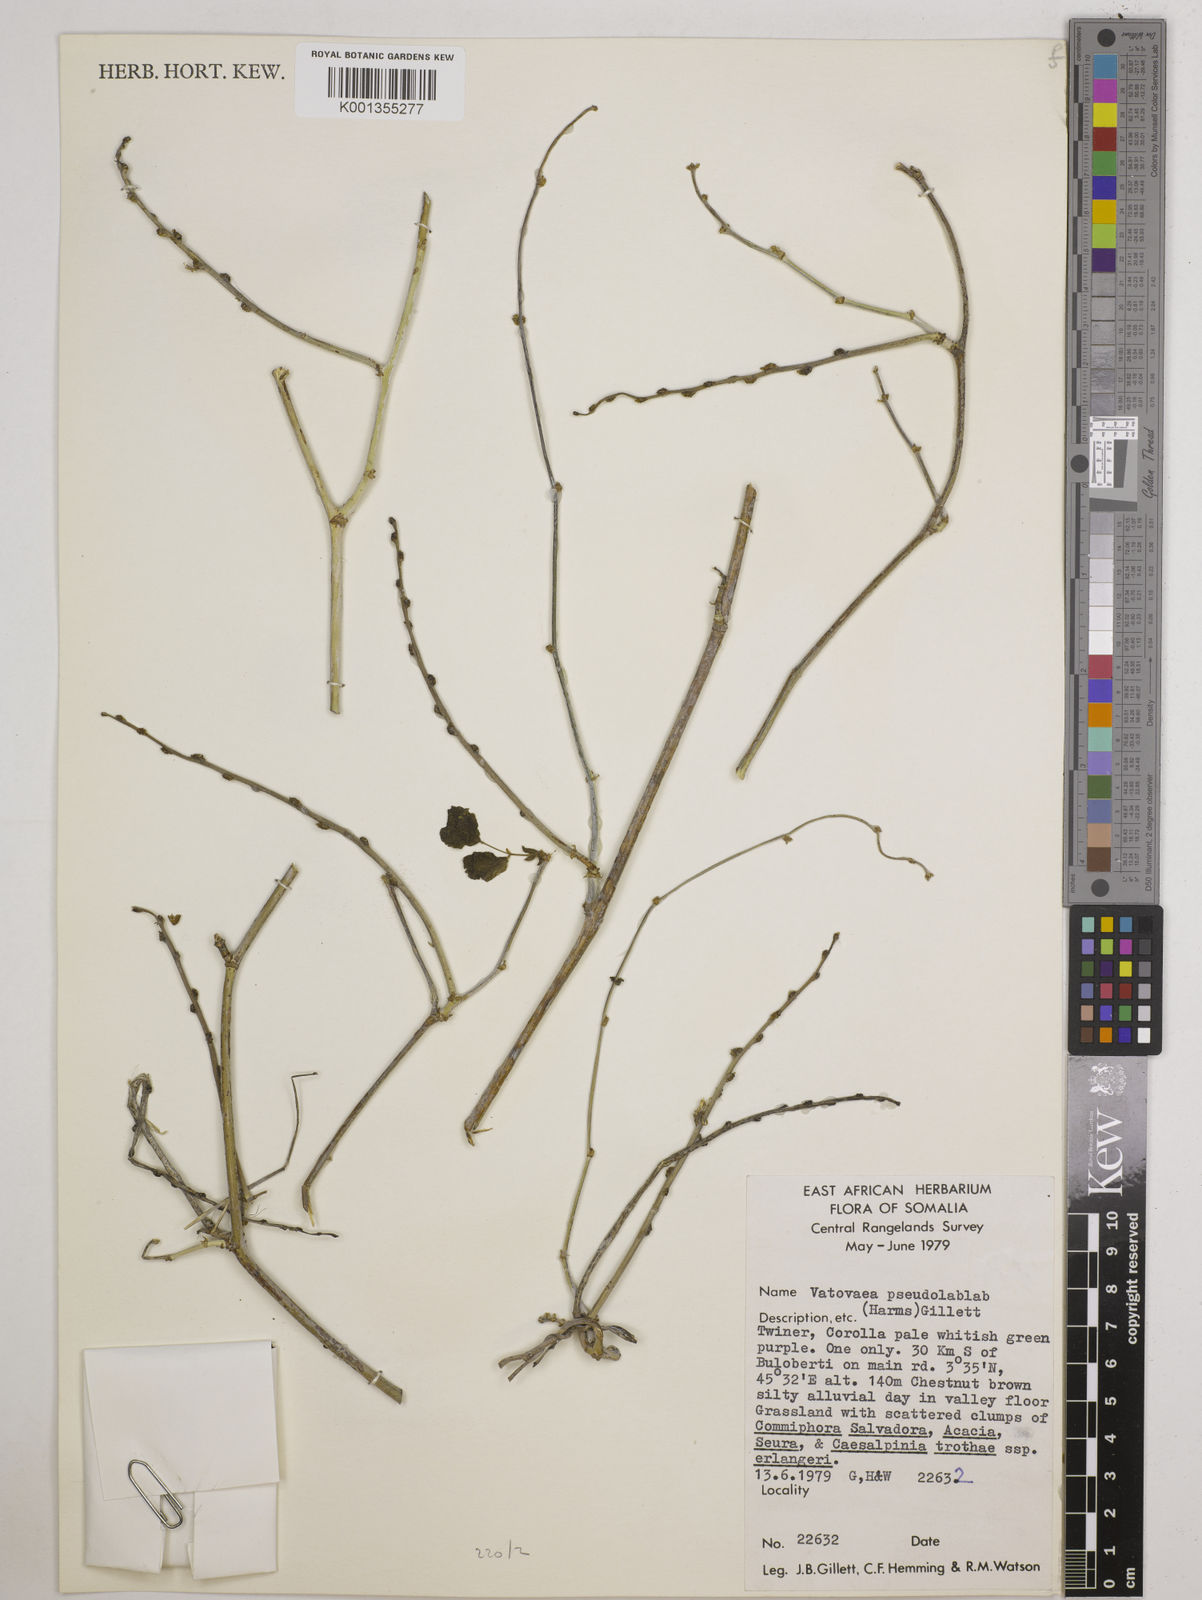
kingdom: Plantae
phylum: Tracheophyta
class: Magnoliopsida
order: Fabales
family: Fabaceae
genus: Vatovaea
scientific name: Vatovaea pseudolablab
